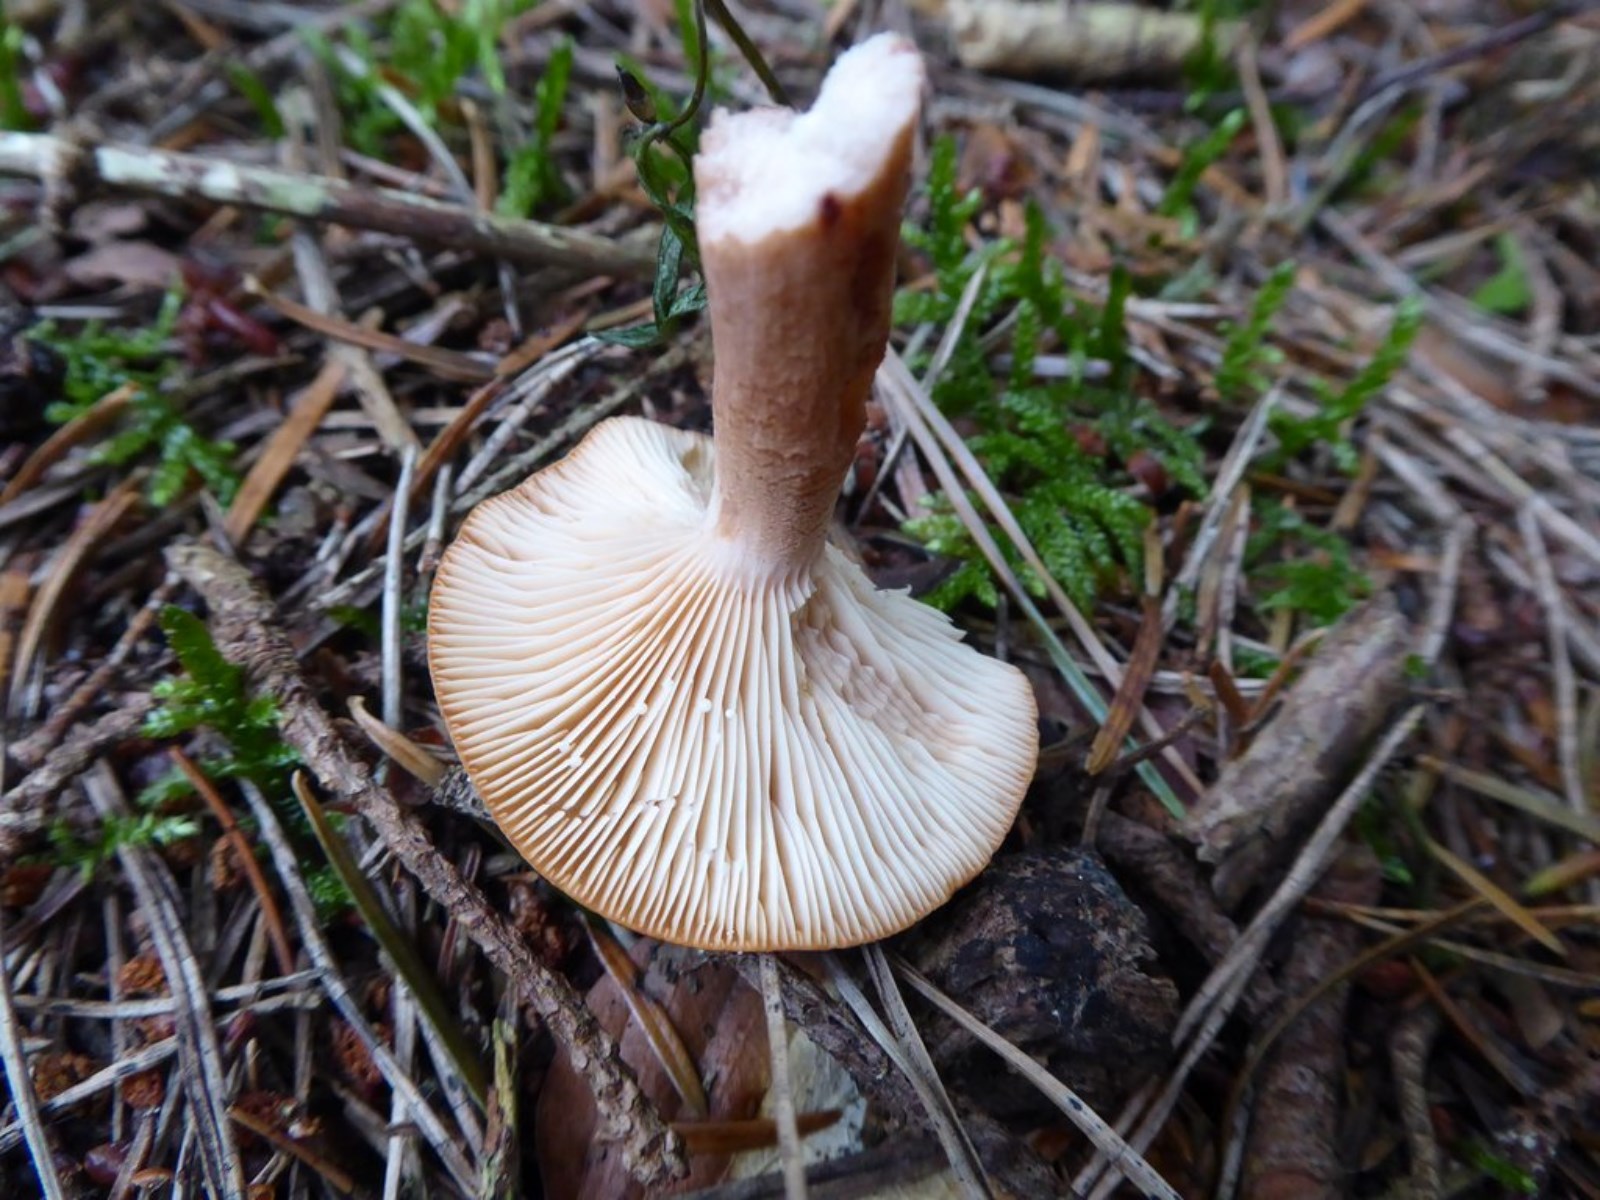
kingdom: Fungi
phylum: Basidiomycota
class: Agaricomycetes
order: Russulales
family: Russulaceae
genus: Lactarius
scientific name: Lactarius rufus
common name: rødbrun mælkehat
